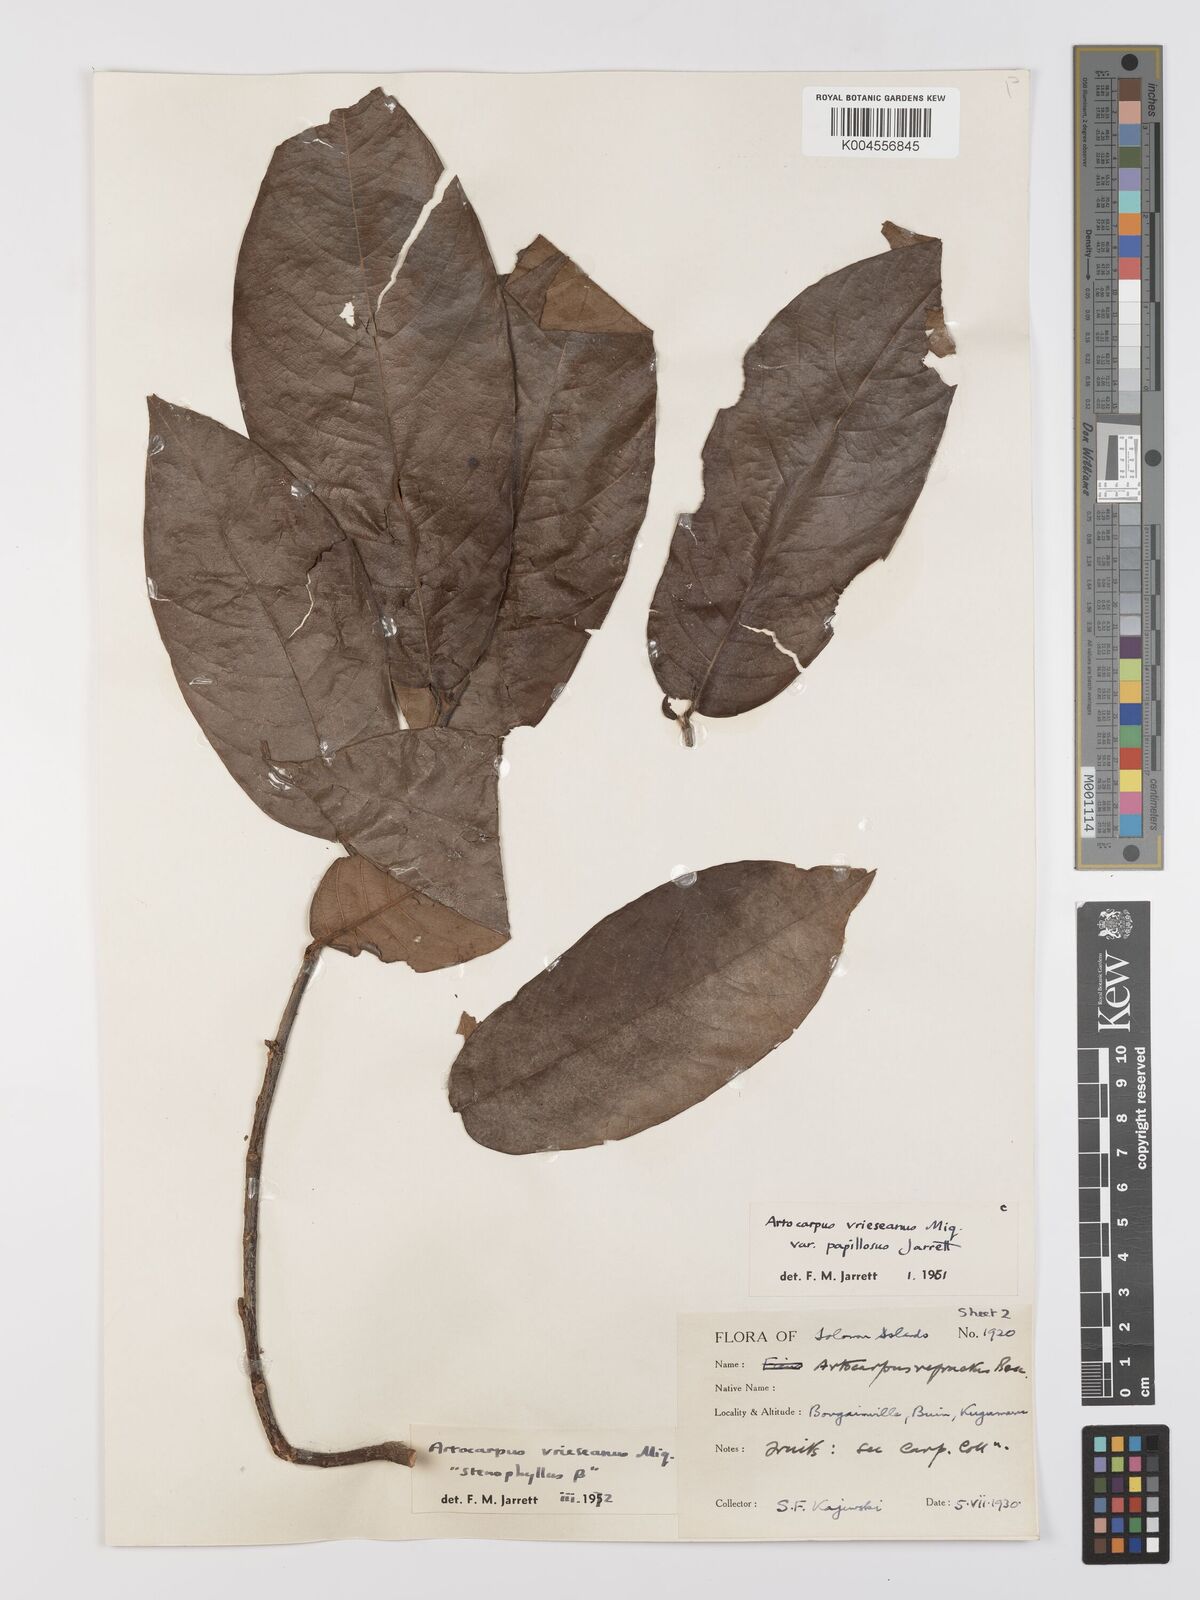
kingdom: Plantae
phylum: Tracheophyta
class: Magnoliopsida
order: Rosales
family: Moraceae
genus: Artocarpus
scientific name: Artocarpus vrieseanus
